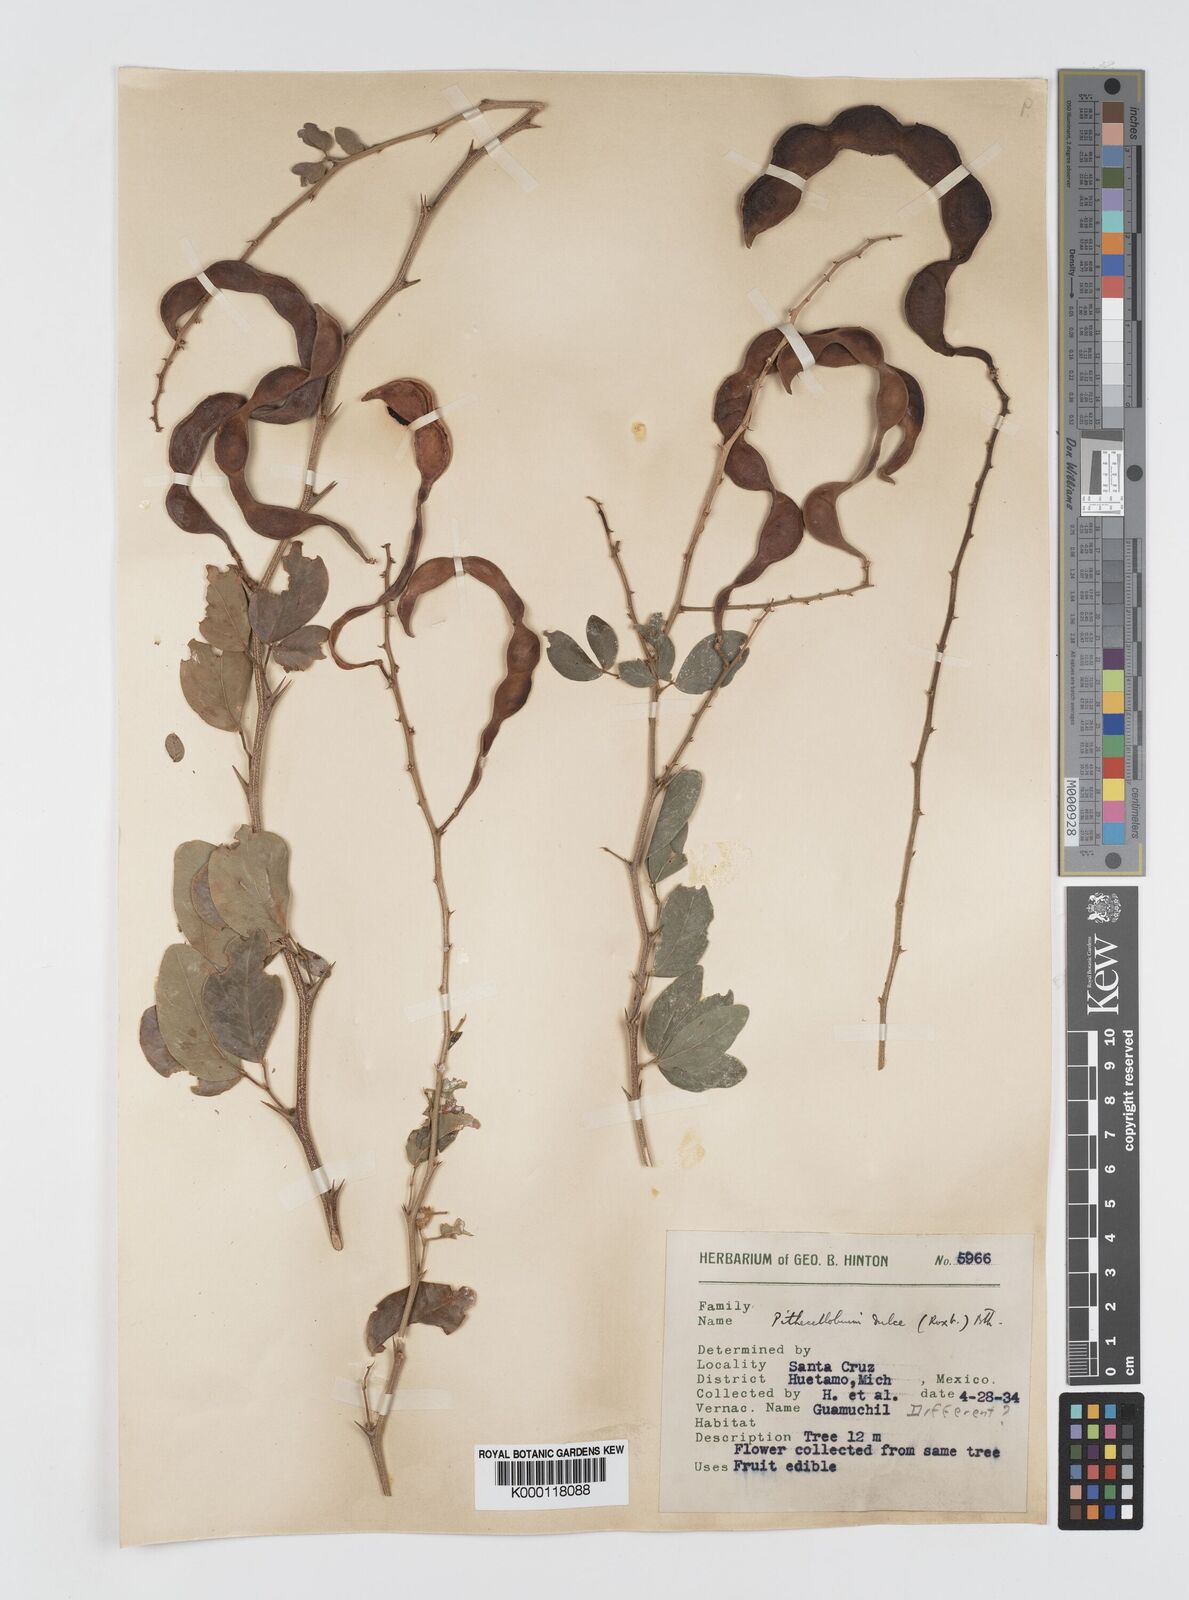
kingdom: Plantae
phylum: Tracheophyta
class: Magnoliopsida
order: Fabales
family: Fabaceae
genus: Pithecellobium
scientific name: Pithecellobium dulce
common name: Monkeypod
